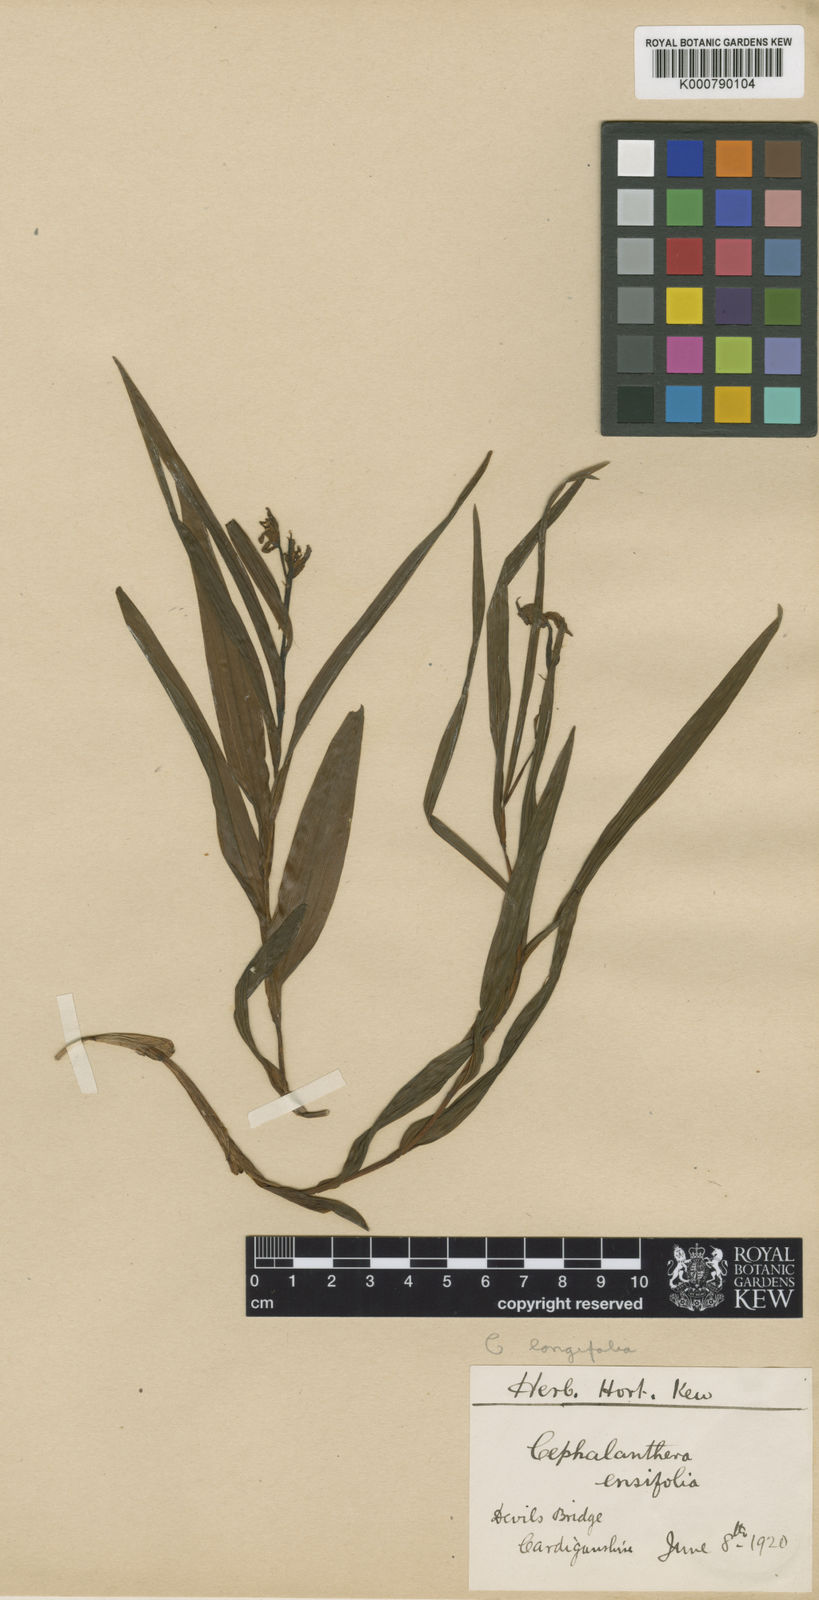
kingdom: Plantae
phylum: Tracheophyta
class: Liliopsida
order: Asparagales
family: Orchidaceae
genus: Cephalanthera
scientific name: Cephalanthera longifolia
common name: Narrow-leaved helleborine
